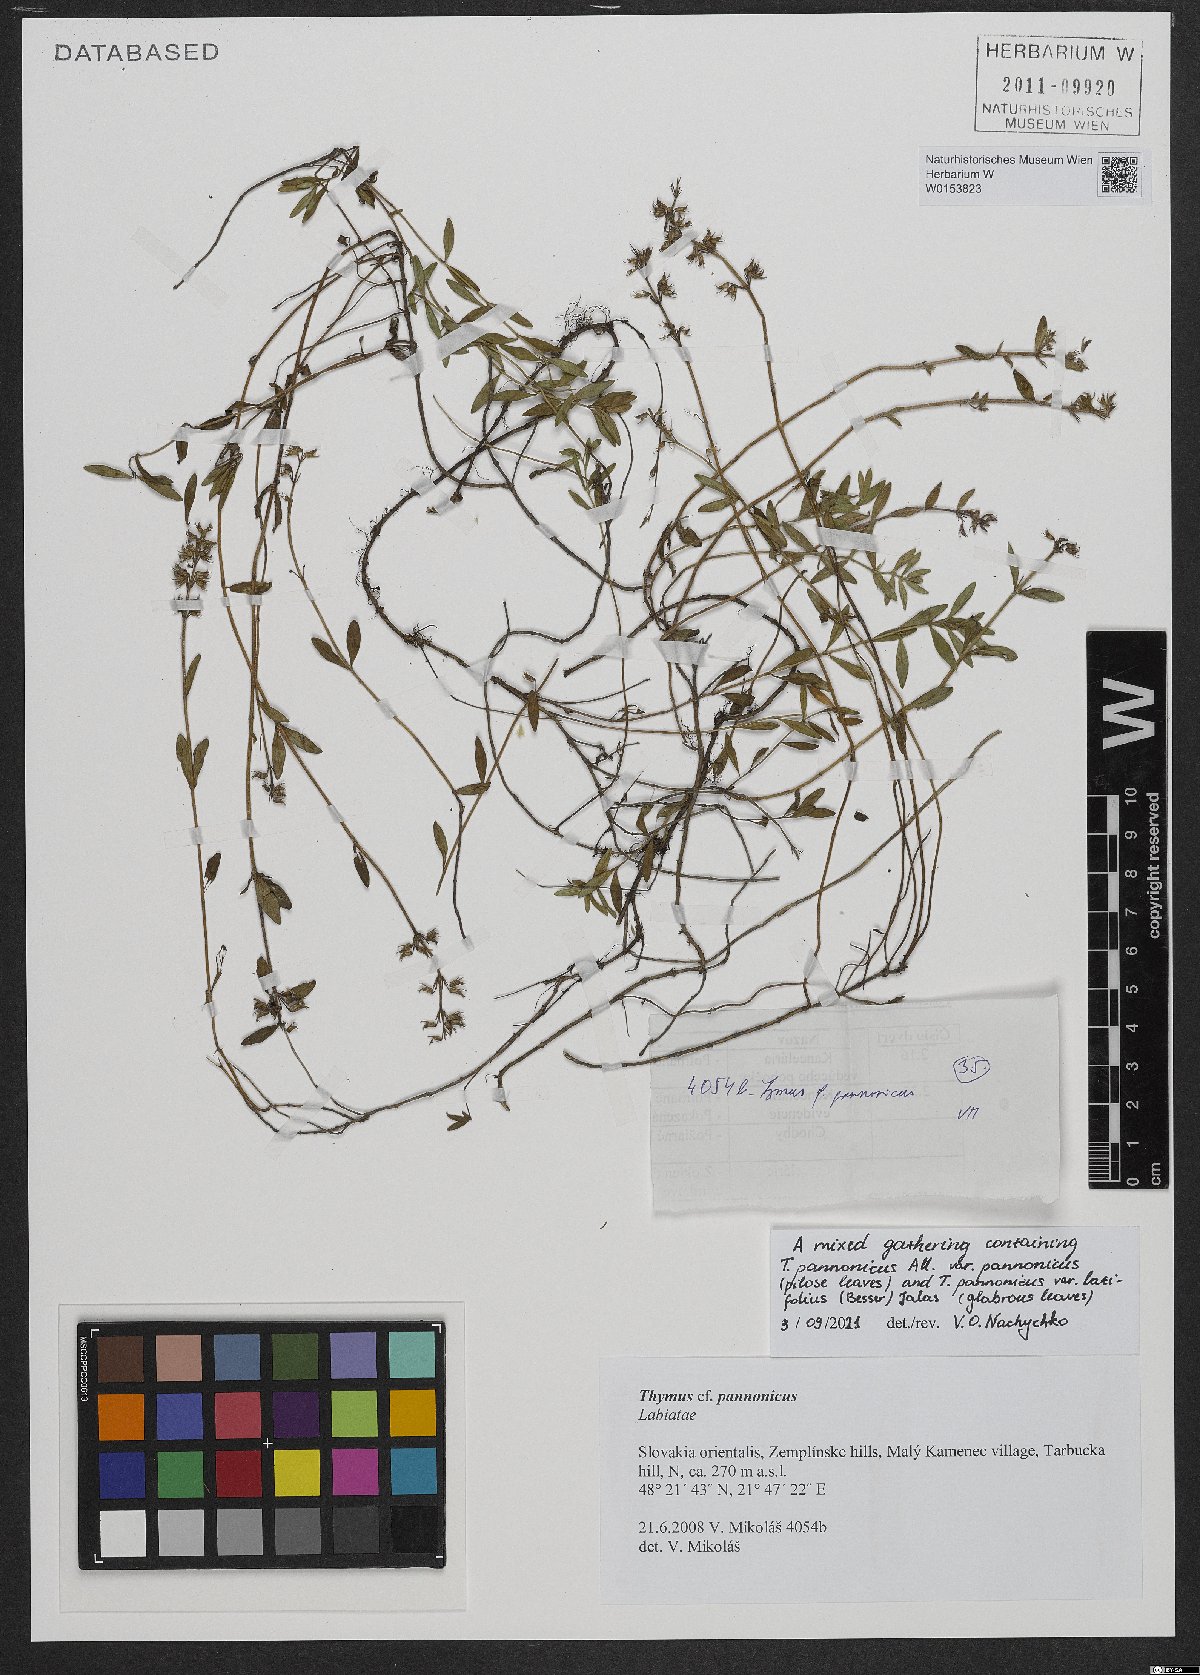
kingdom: Plantae
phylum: Tracheophyta
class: Magnoliopsida
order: Lamiales
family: Lamiaceae
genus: Thymus
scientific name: Thymus pannonicus
